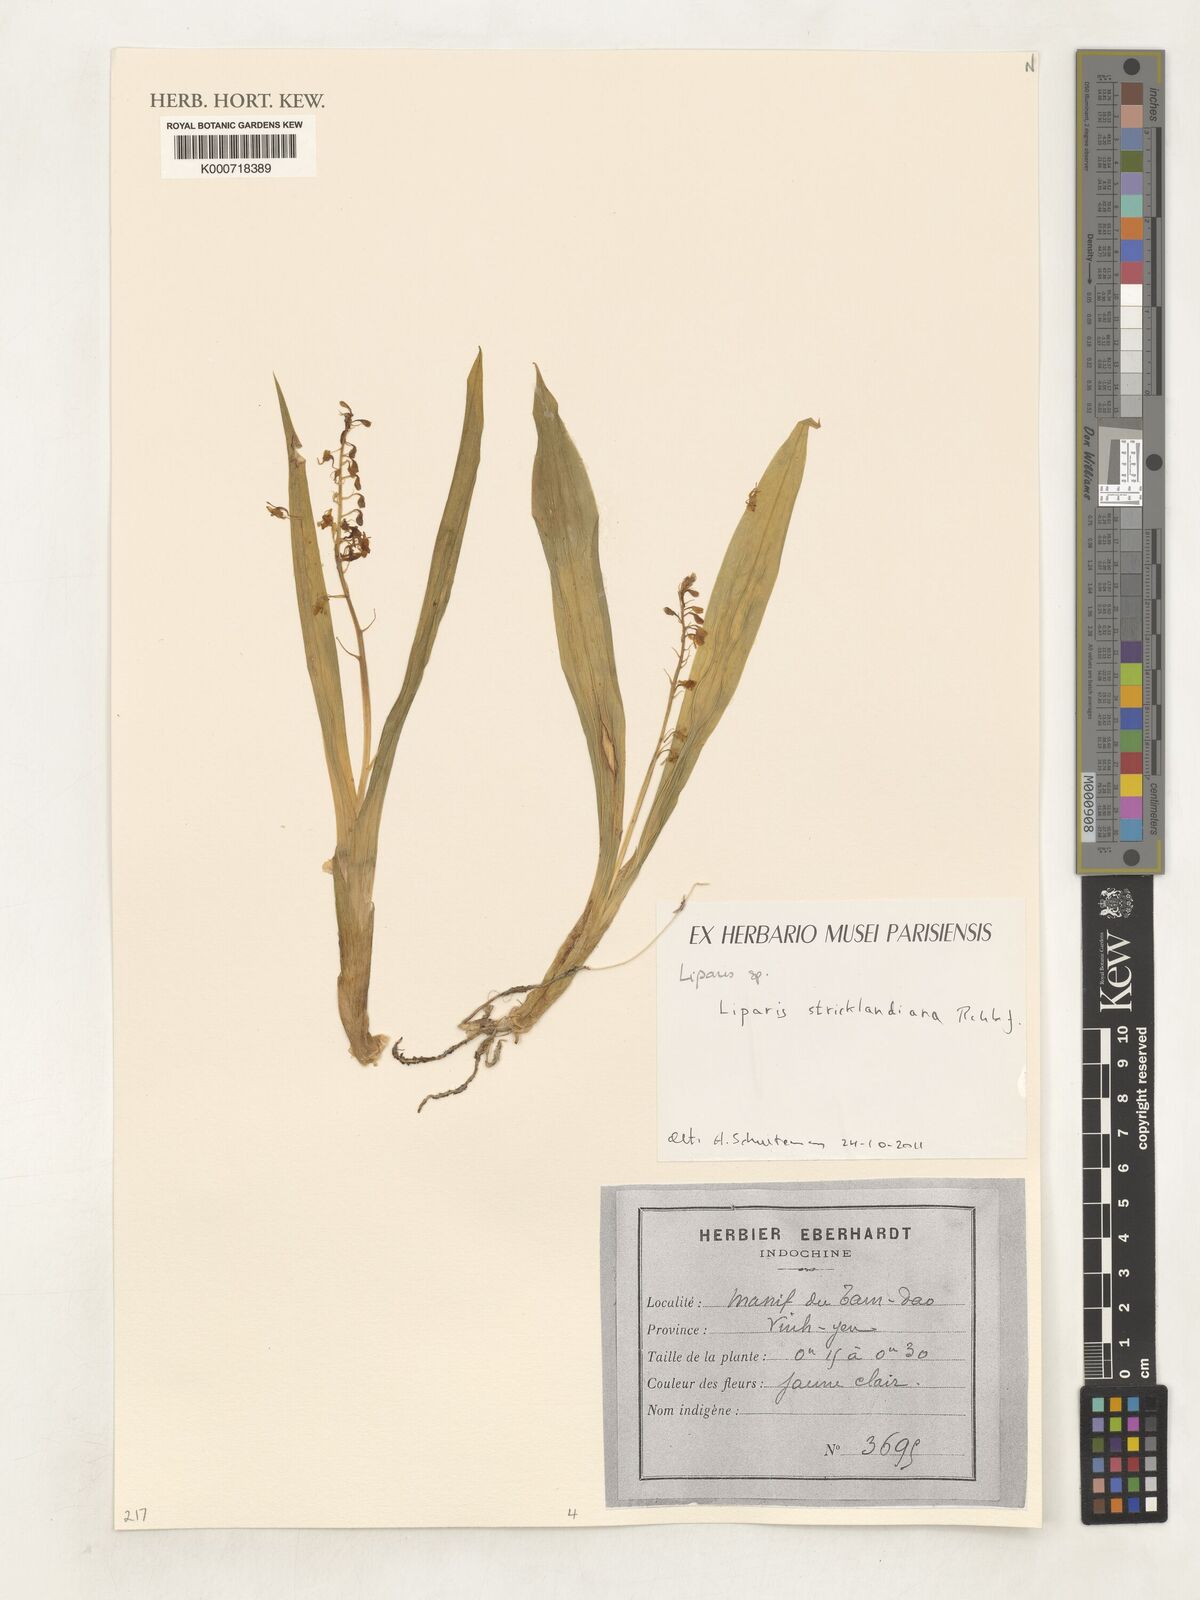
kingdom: Plantae
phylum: Tracheophyta
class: Liliopsida
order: Asparagales
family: Orchidaceae
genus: Liparis
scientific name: Liparis stricklandiana
